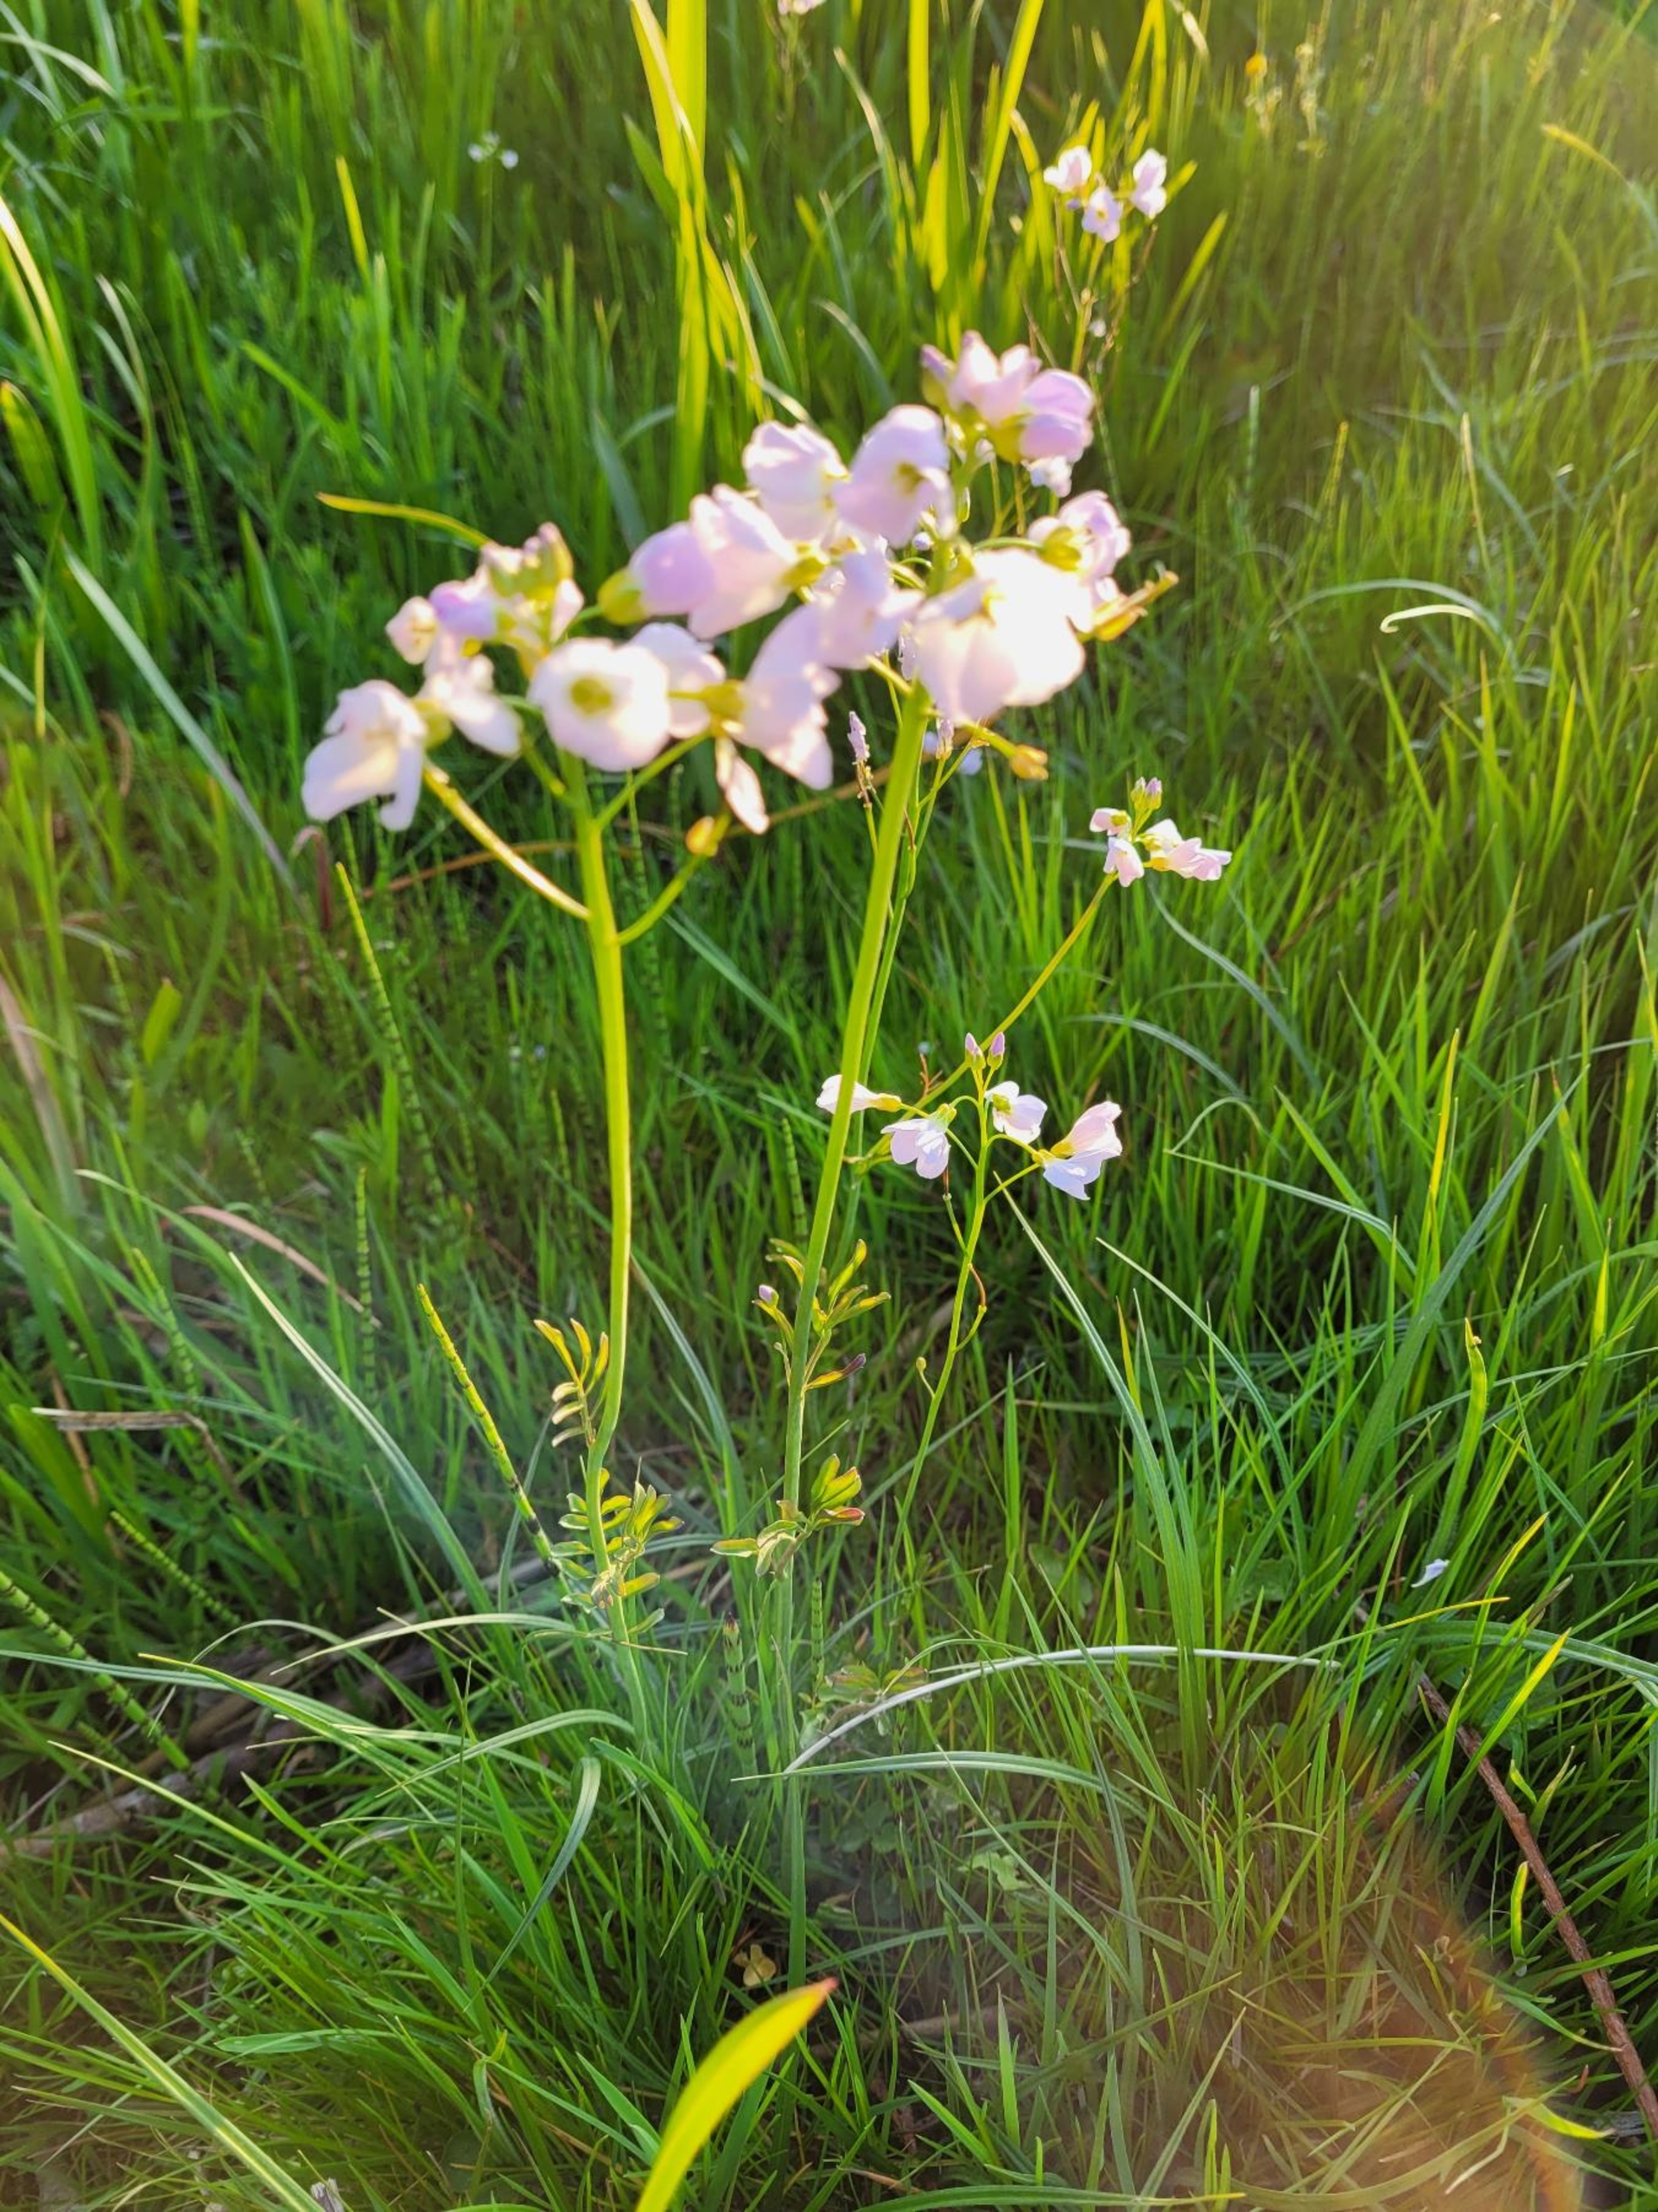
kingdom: Plantae
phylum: Tracheophyta
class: Magnoliopsida
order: Brassicales
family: Brassicaceae
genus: Cardamine
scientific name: Cardamine pratensis
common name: Engkarse
